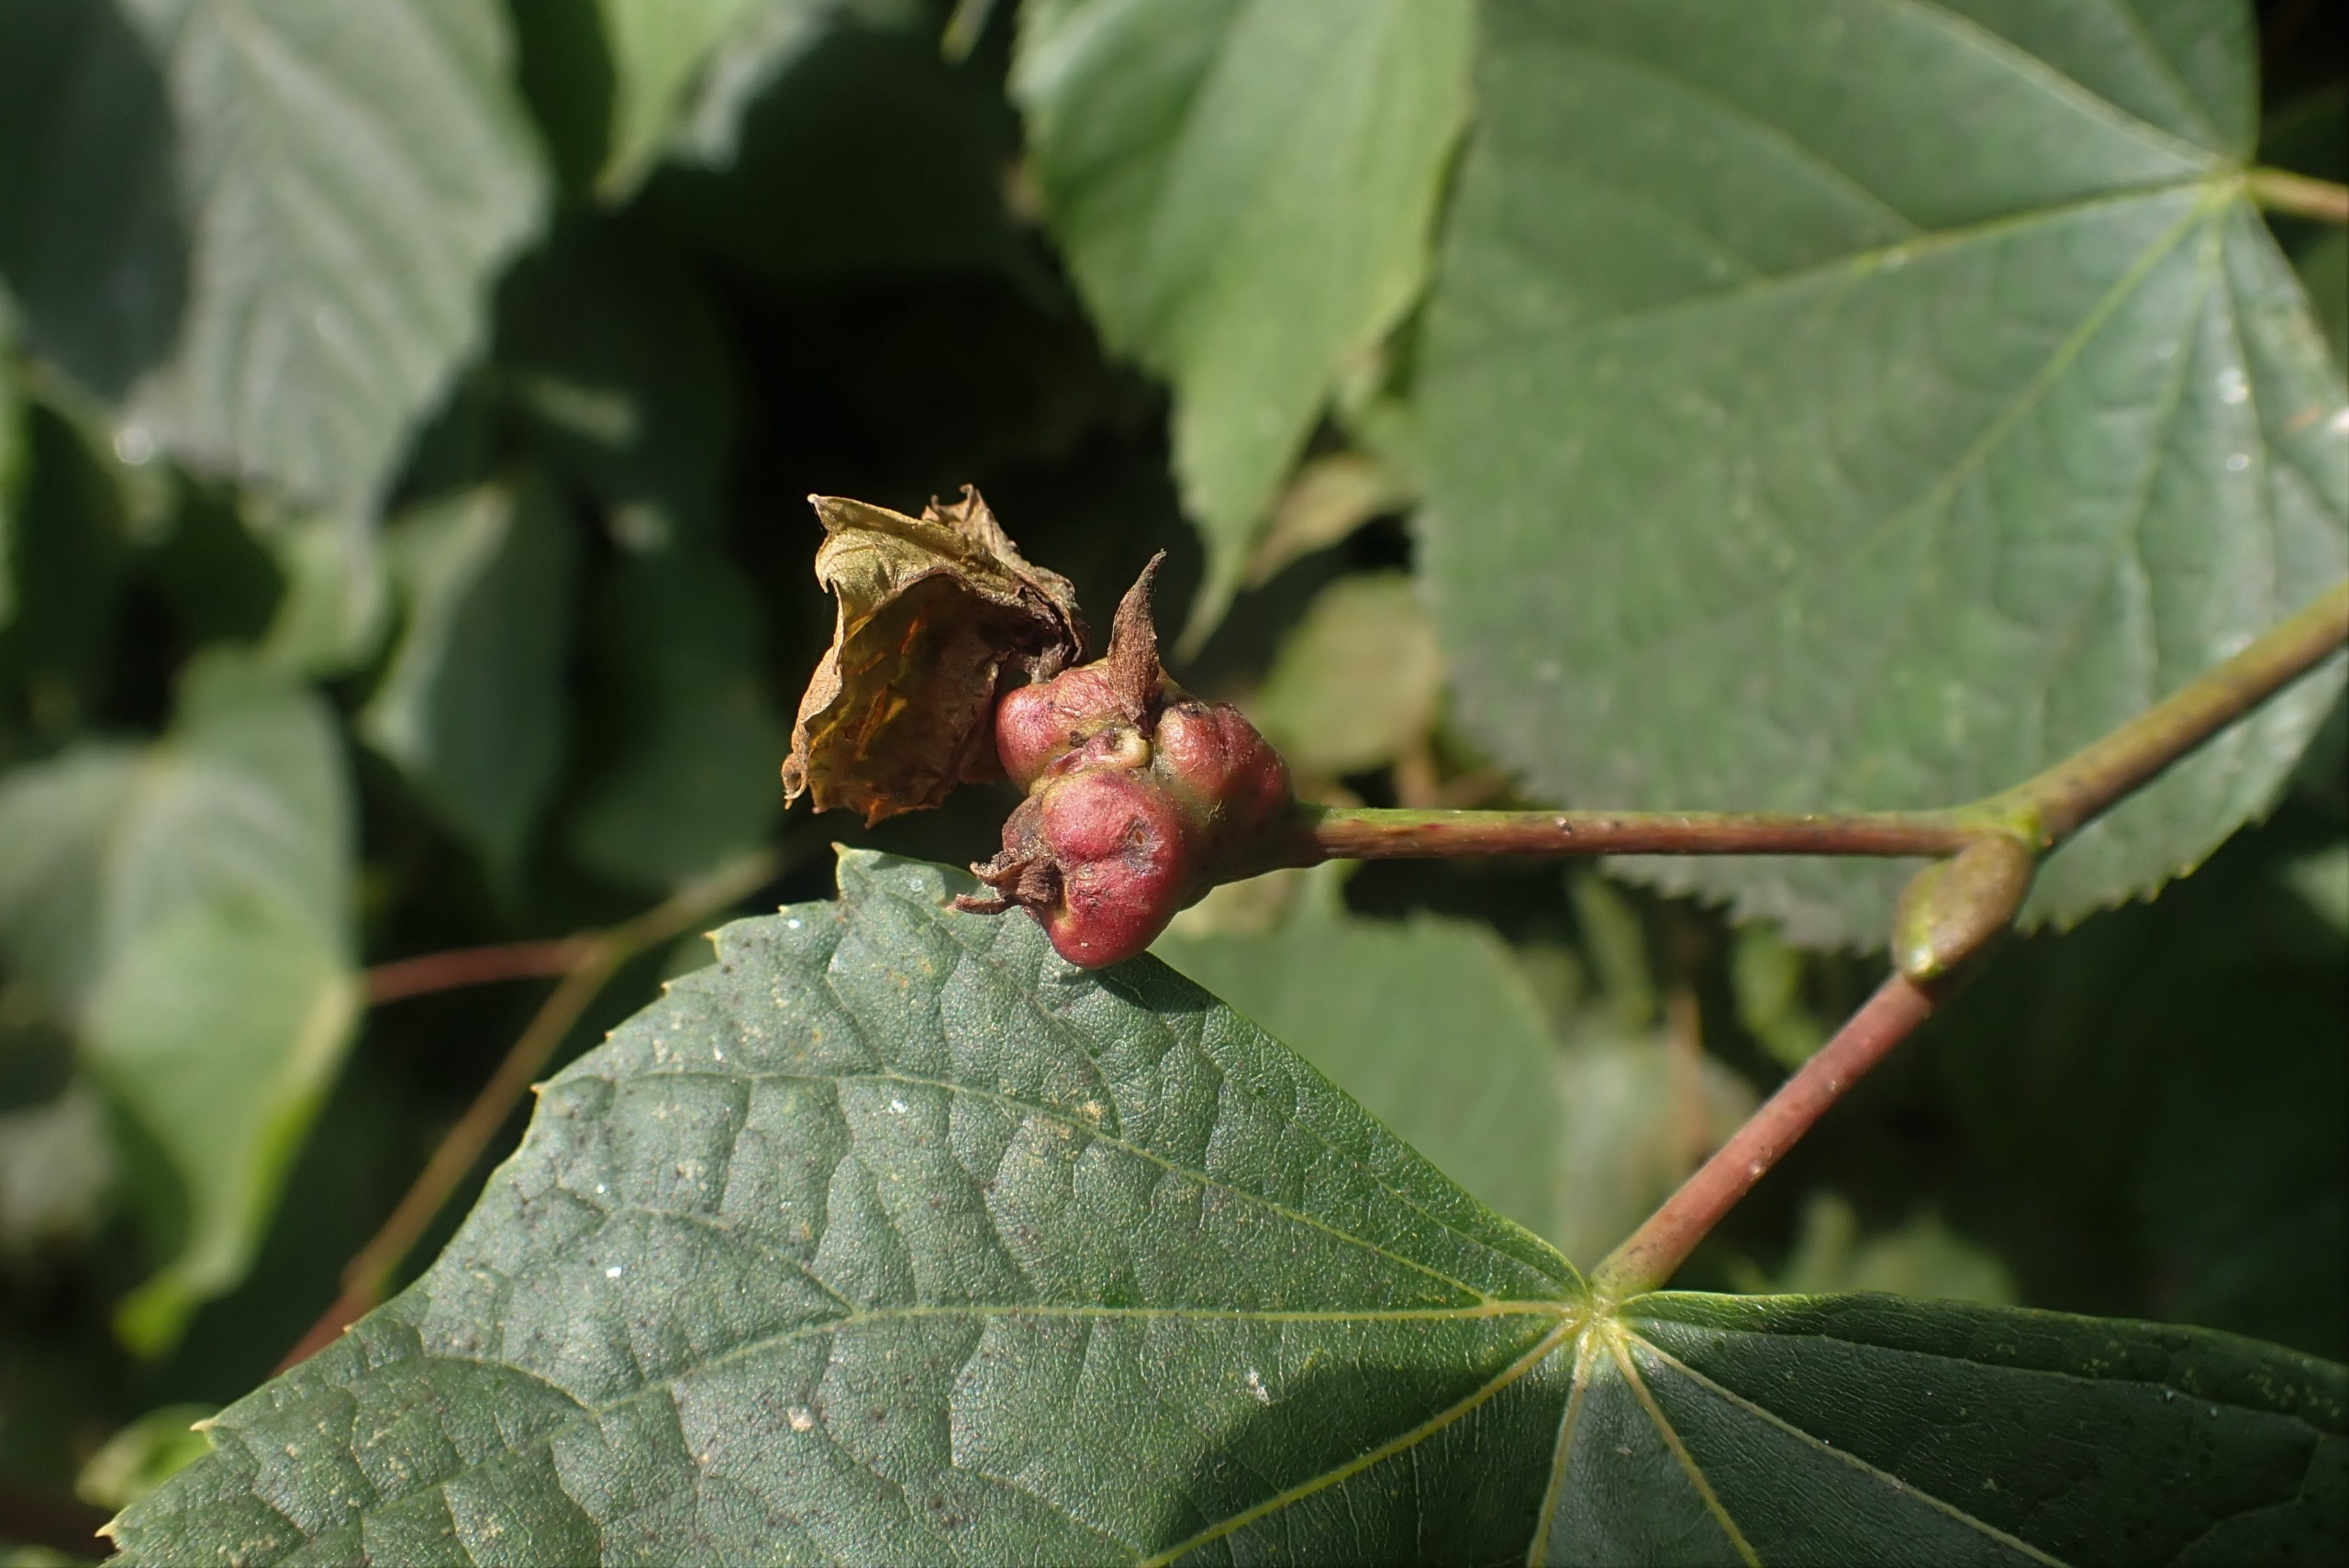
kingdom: Animalia
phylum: Arthropoda
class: Insecta
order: Diptera
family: Cecidomyiidae
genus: Contarinia
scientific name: Contarinia tiliarum
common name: Springende lindegalmyg
